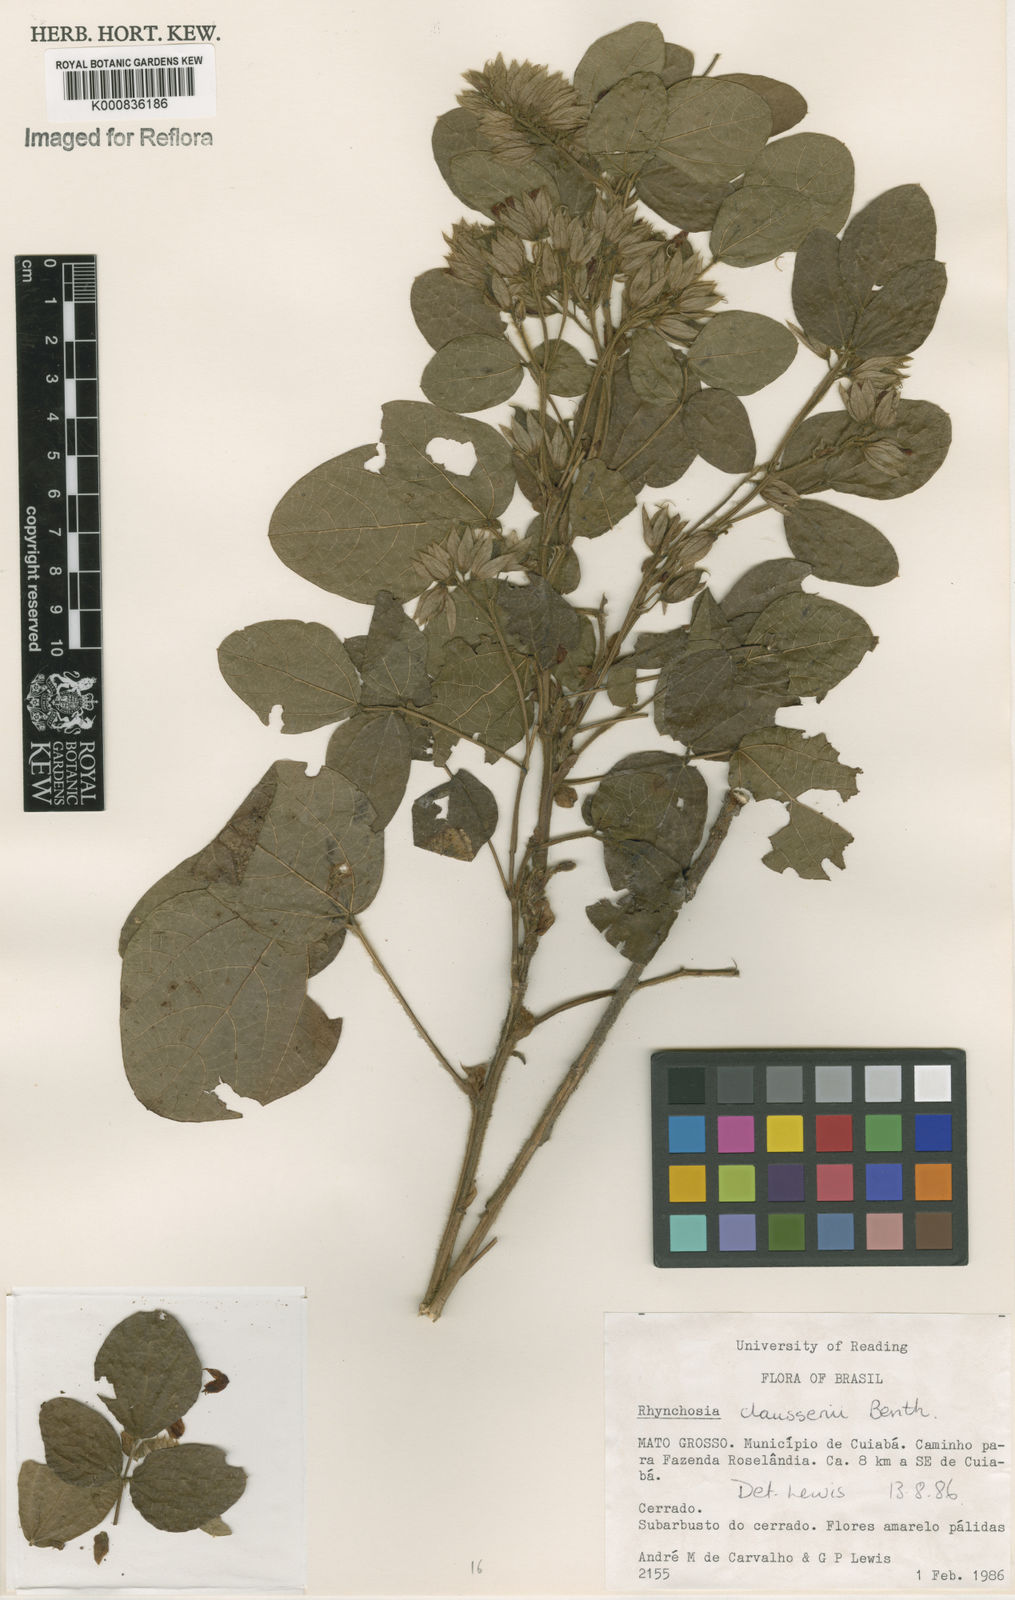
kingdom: Plantae
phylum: Tracheophyta
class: Magnoliopsida
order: Fabales
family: Fabaceae
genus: Rhynchosia
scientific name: Rhynchosia claussenii
